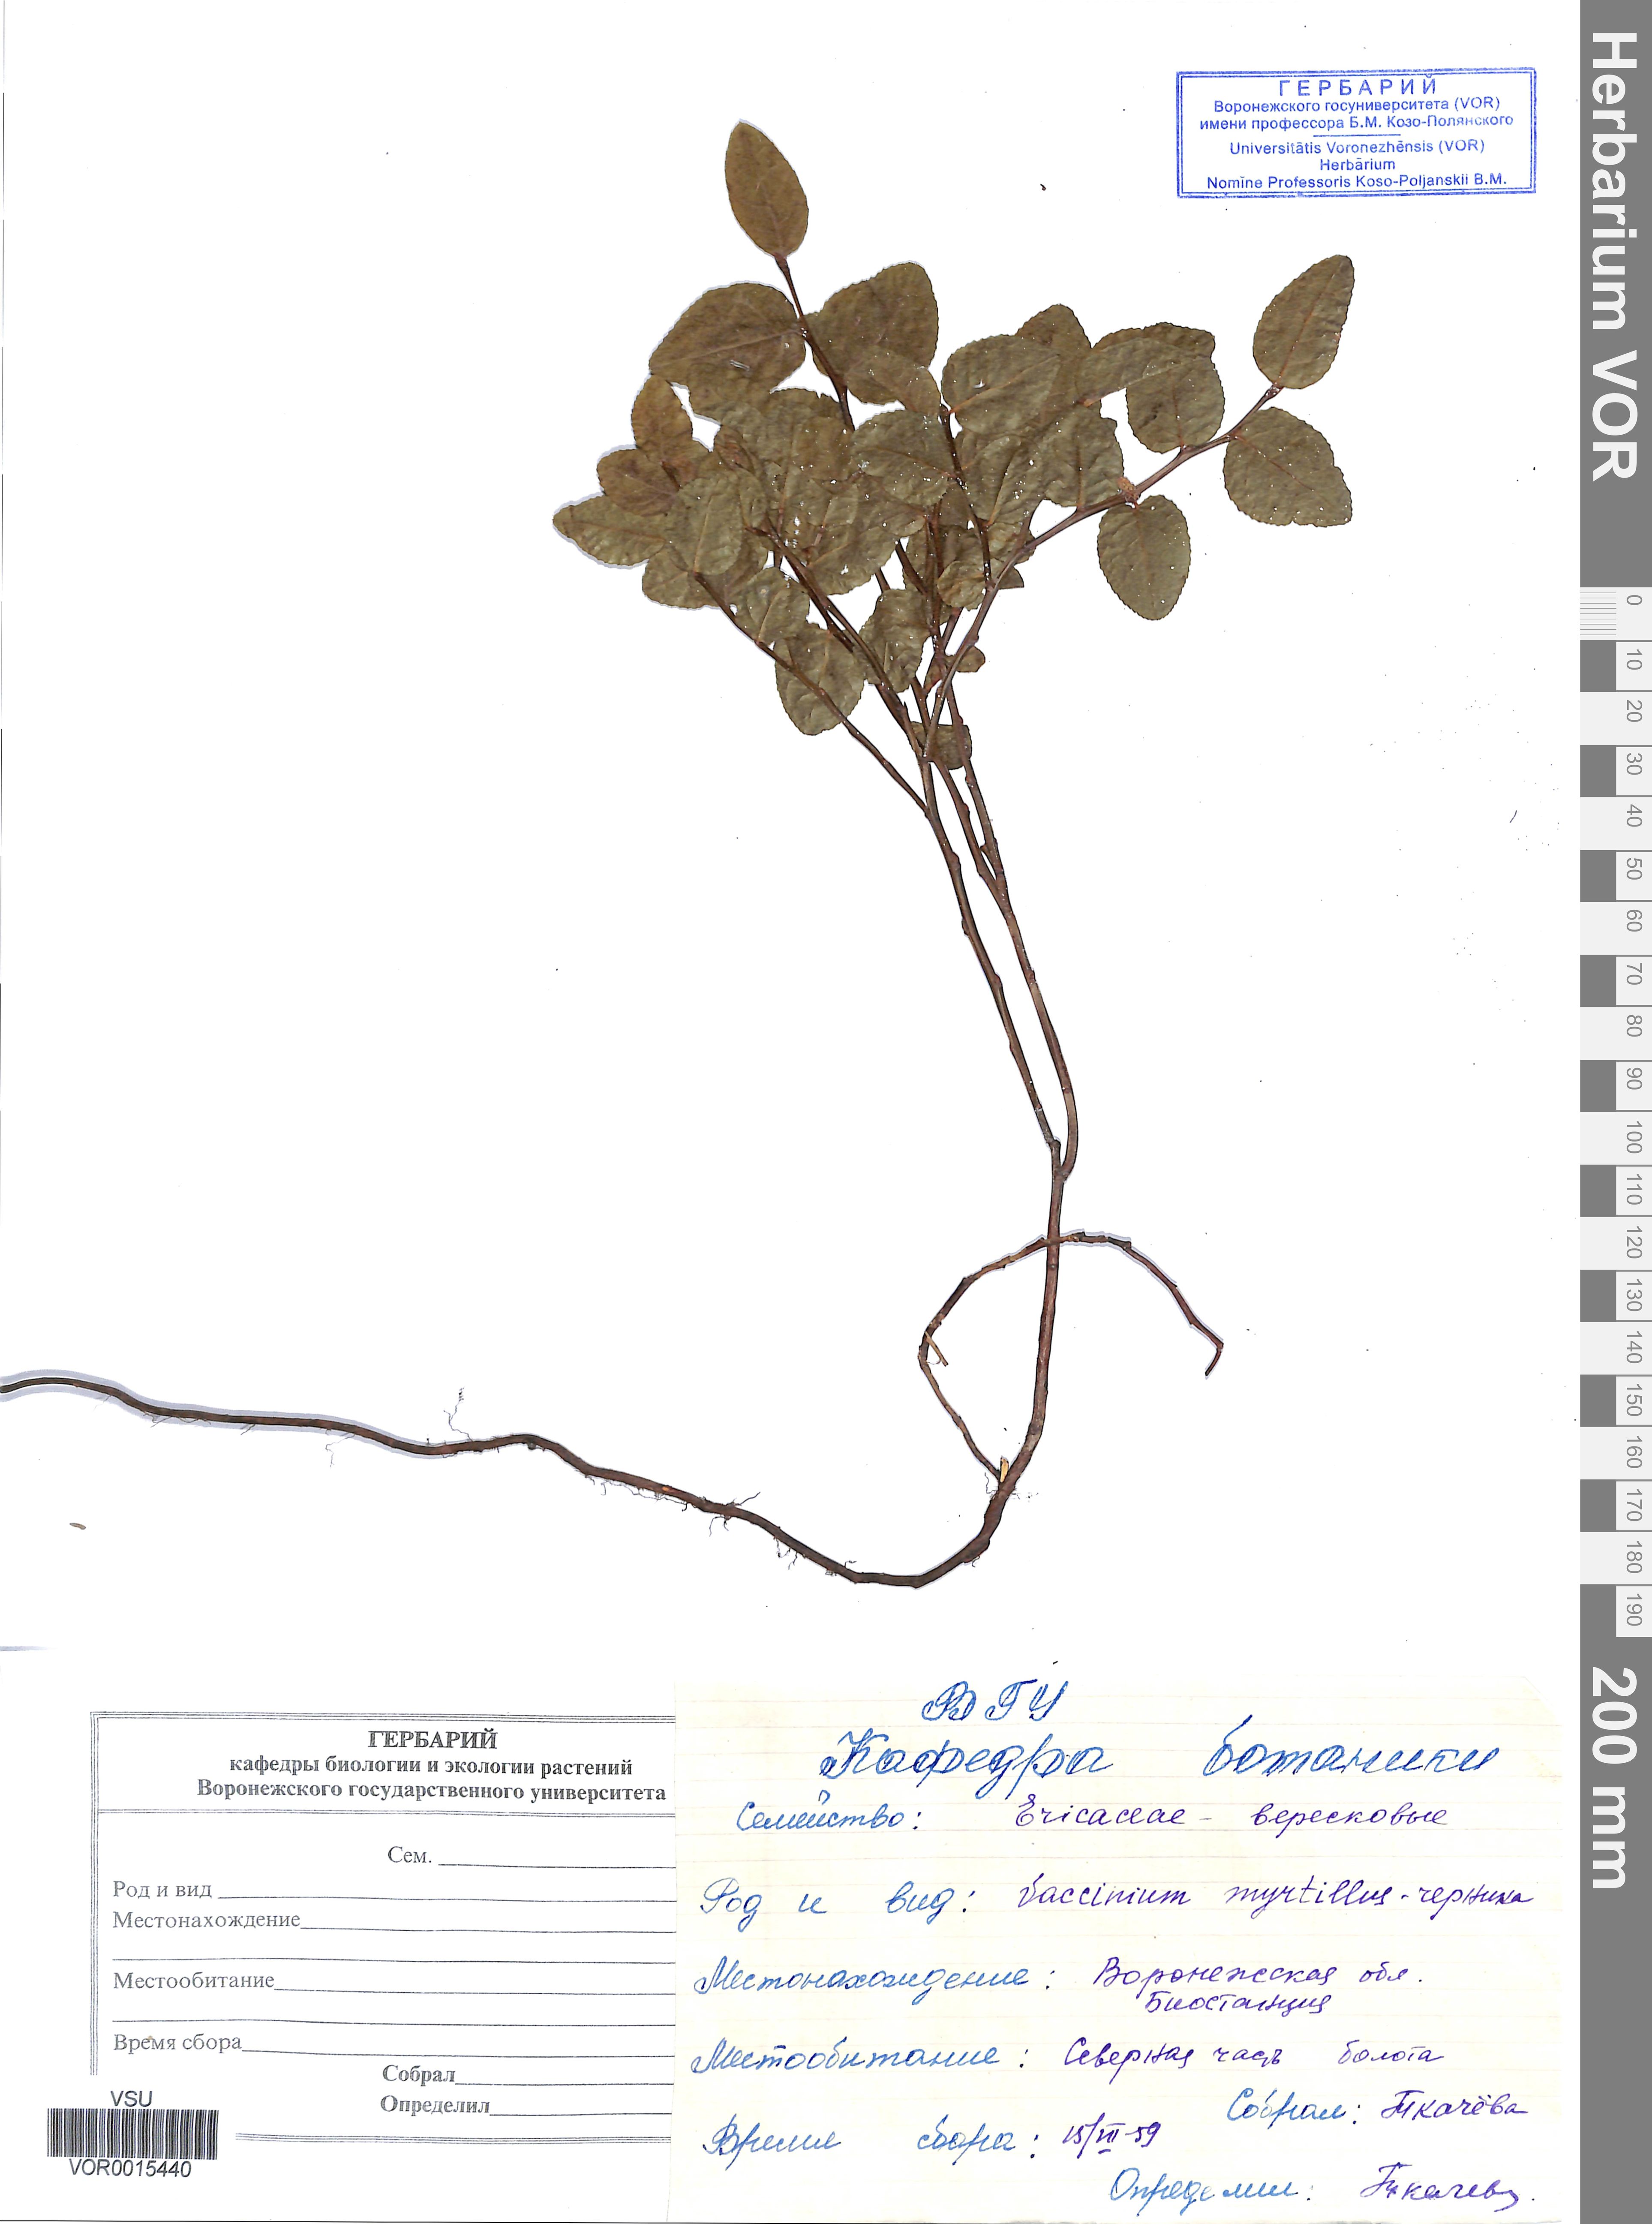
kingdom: Plantae
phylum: Tracheophyta
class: Magnoliopsida
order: Ericales
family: Ericaceae
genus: Vaccinium
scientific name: Vaccinium myrtillus
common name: Bilberry
